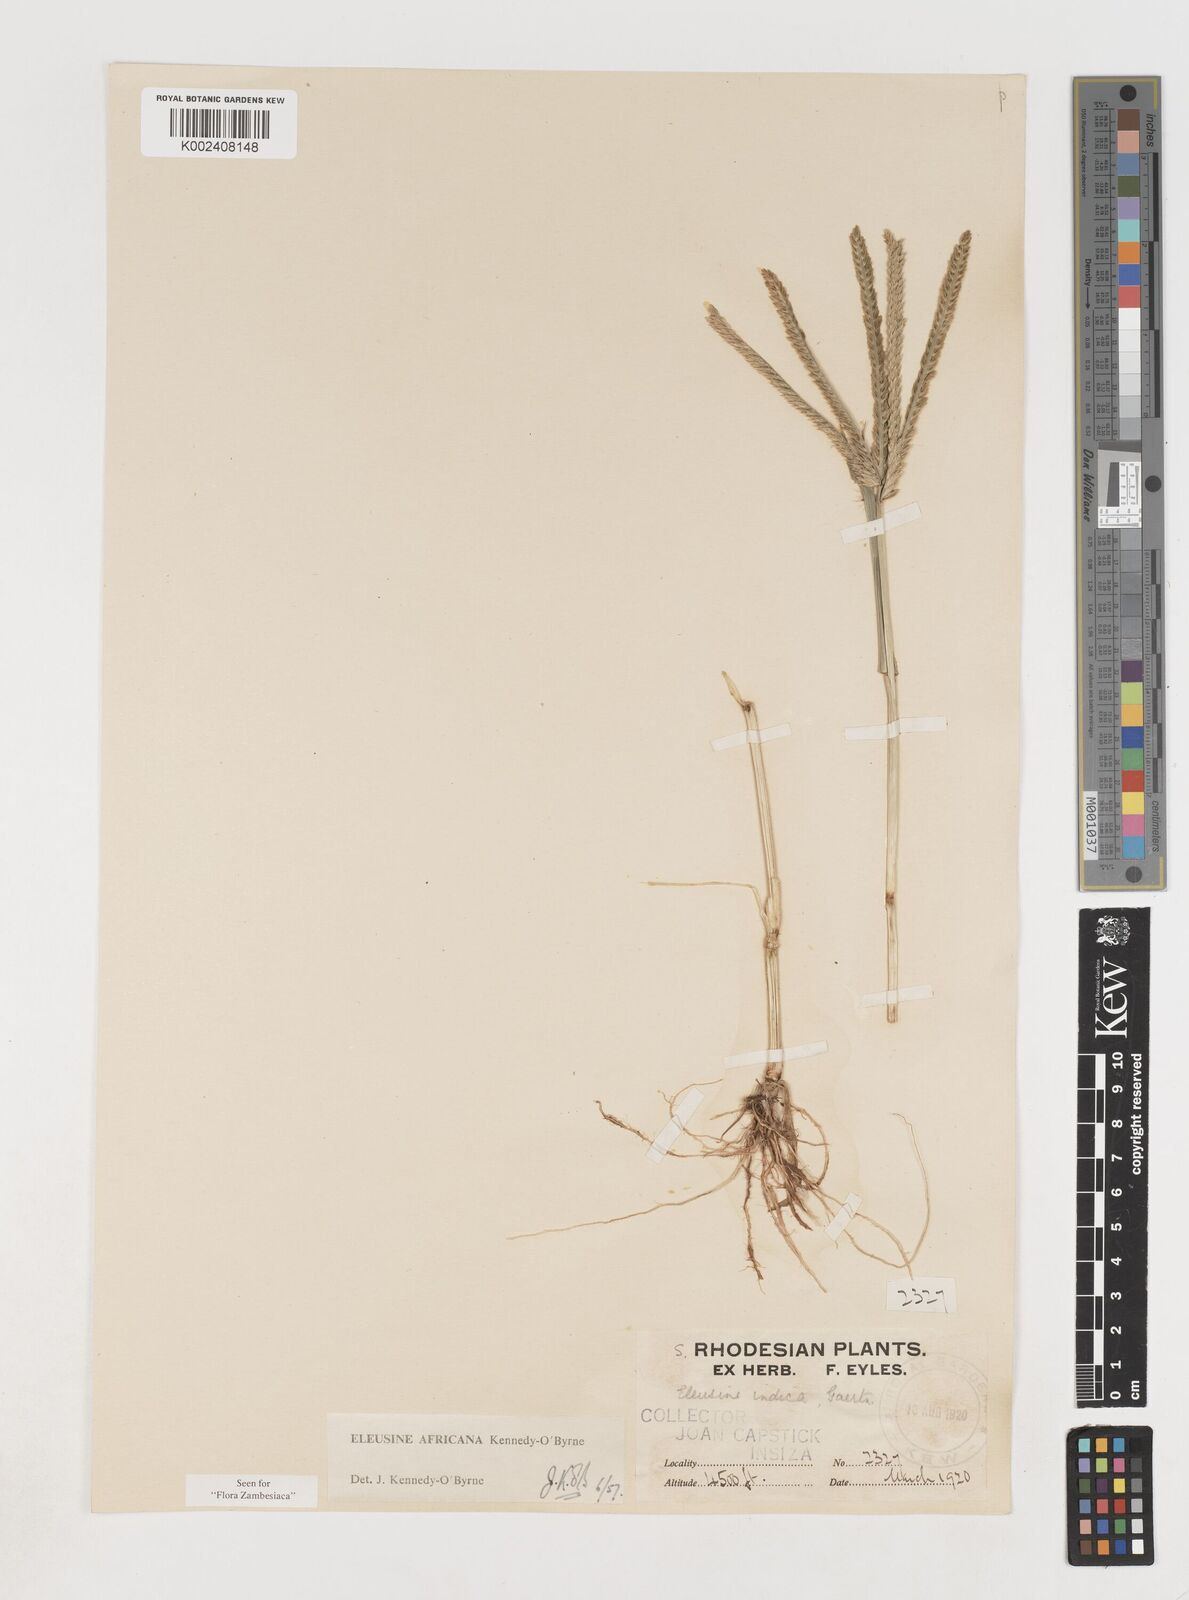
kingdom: Plantae
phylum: Tracheophyta
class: Liliopsida
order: Poales
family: Poaceae
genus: Eleusine
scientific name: Eleusine africana
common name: Wild african finger millet
